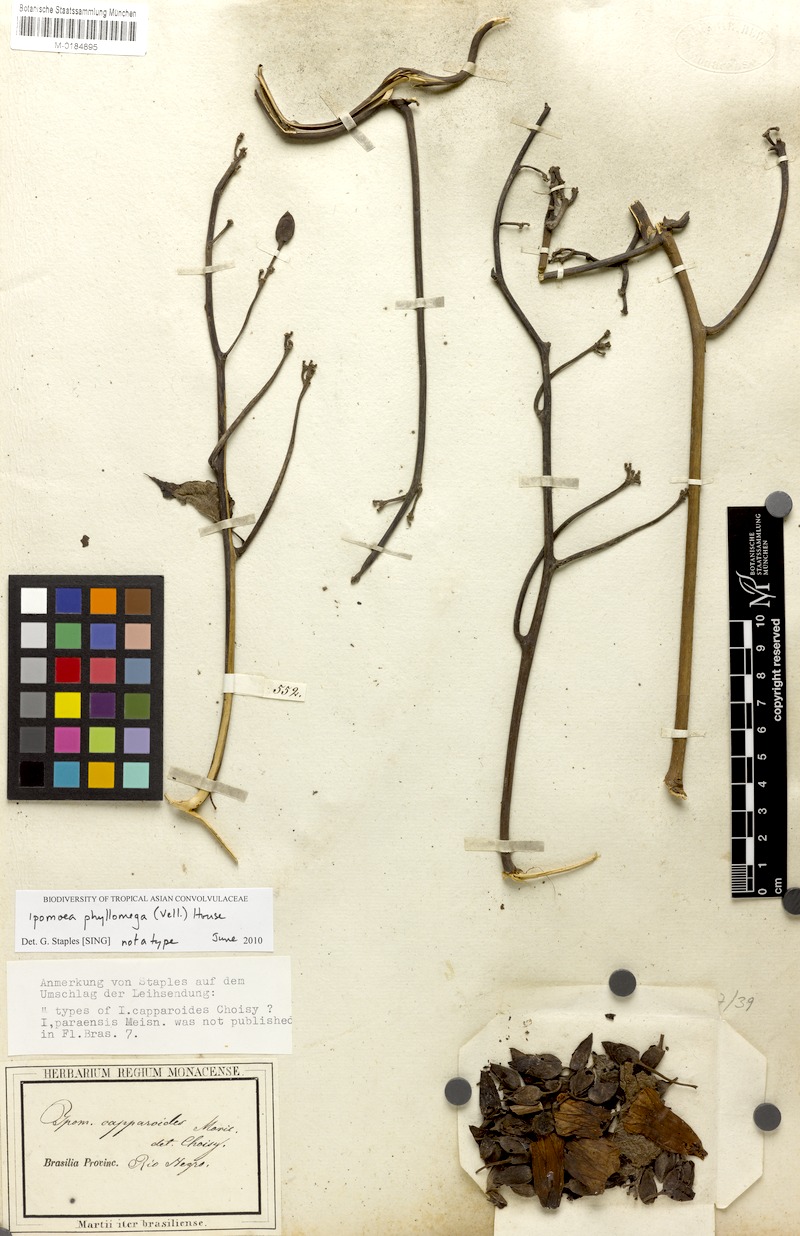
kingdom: Plantae
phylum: Tracheophyta
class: Magnoliopsida
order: Solanales
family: Convolvulaceae
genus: Ipomoea
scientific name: Ipomoea philomega
